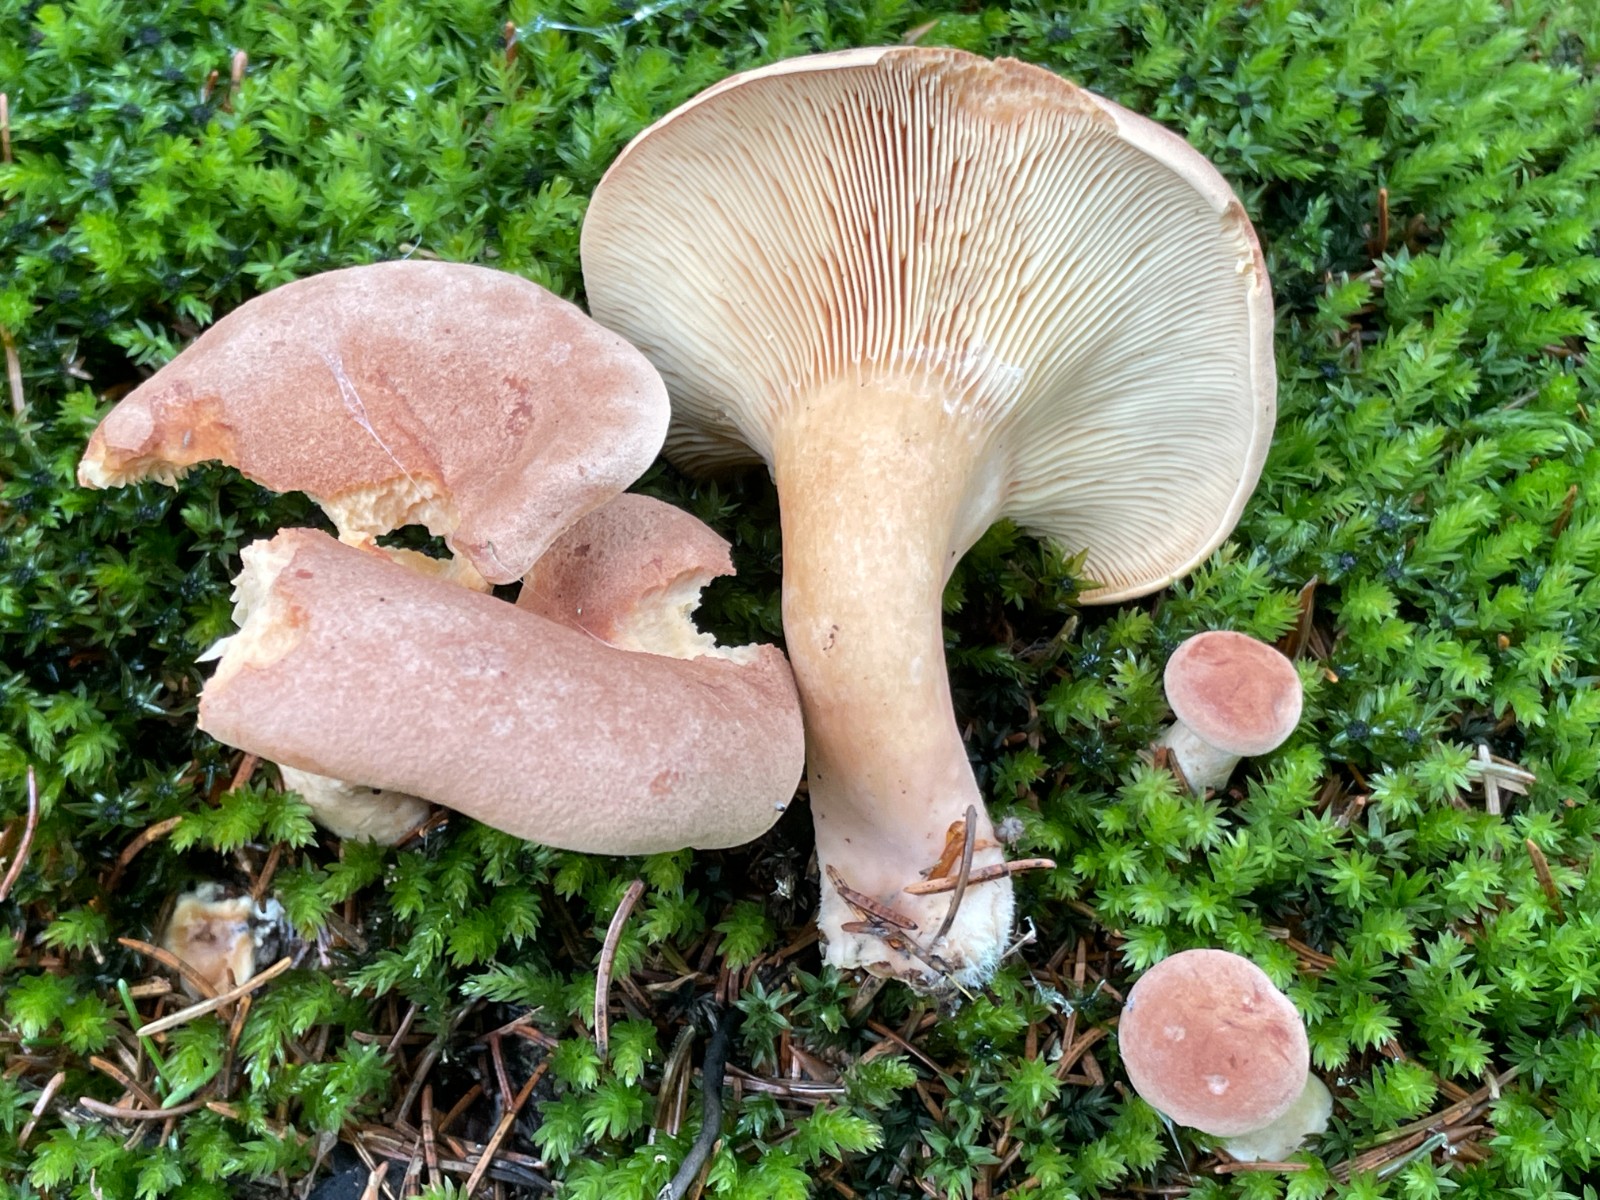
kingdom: Fungi
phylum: Basidiomycota
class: Agaricomycetes
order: Russulales
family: Russulaceae
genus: Lactarius
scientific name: Lactarius helvus
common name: mose-mælkehat
